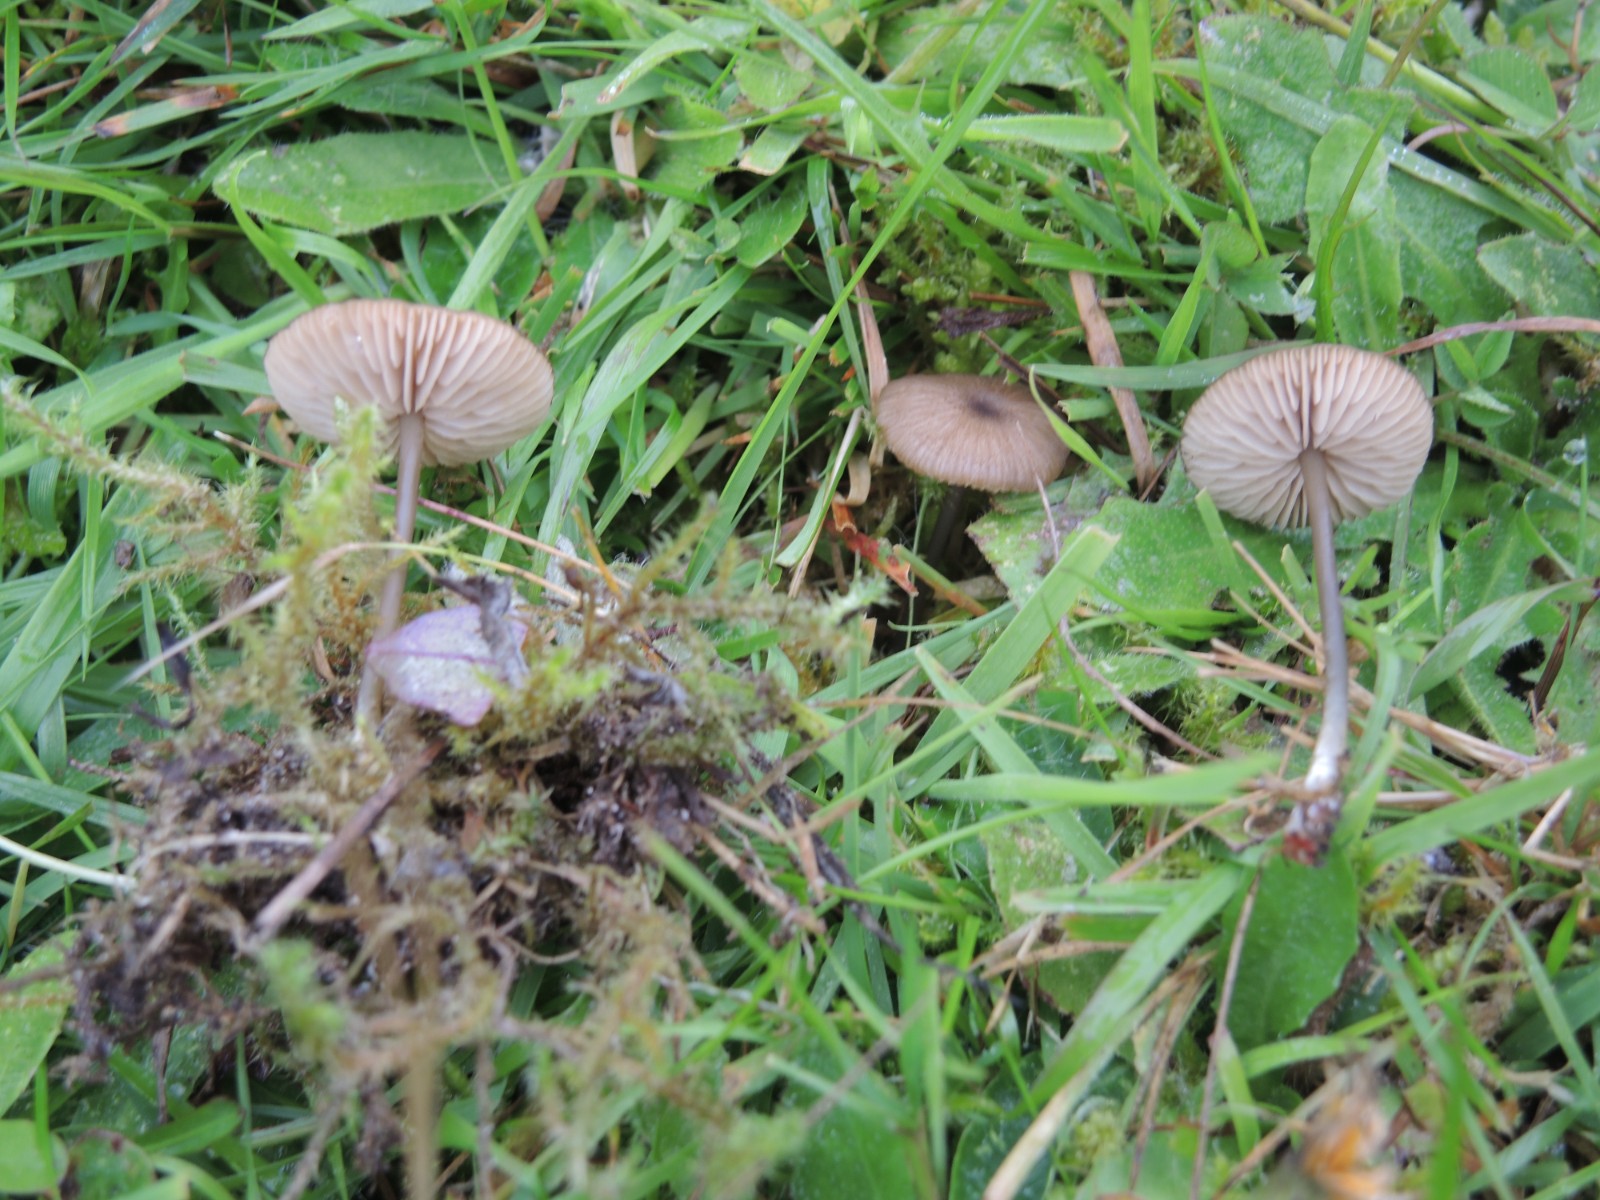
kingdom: Fungi
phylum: Basidiomycota
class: Agaricomycetes
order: Agaricales
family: Entolomataceae
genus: Entoloma
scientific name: Entoloma
